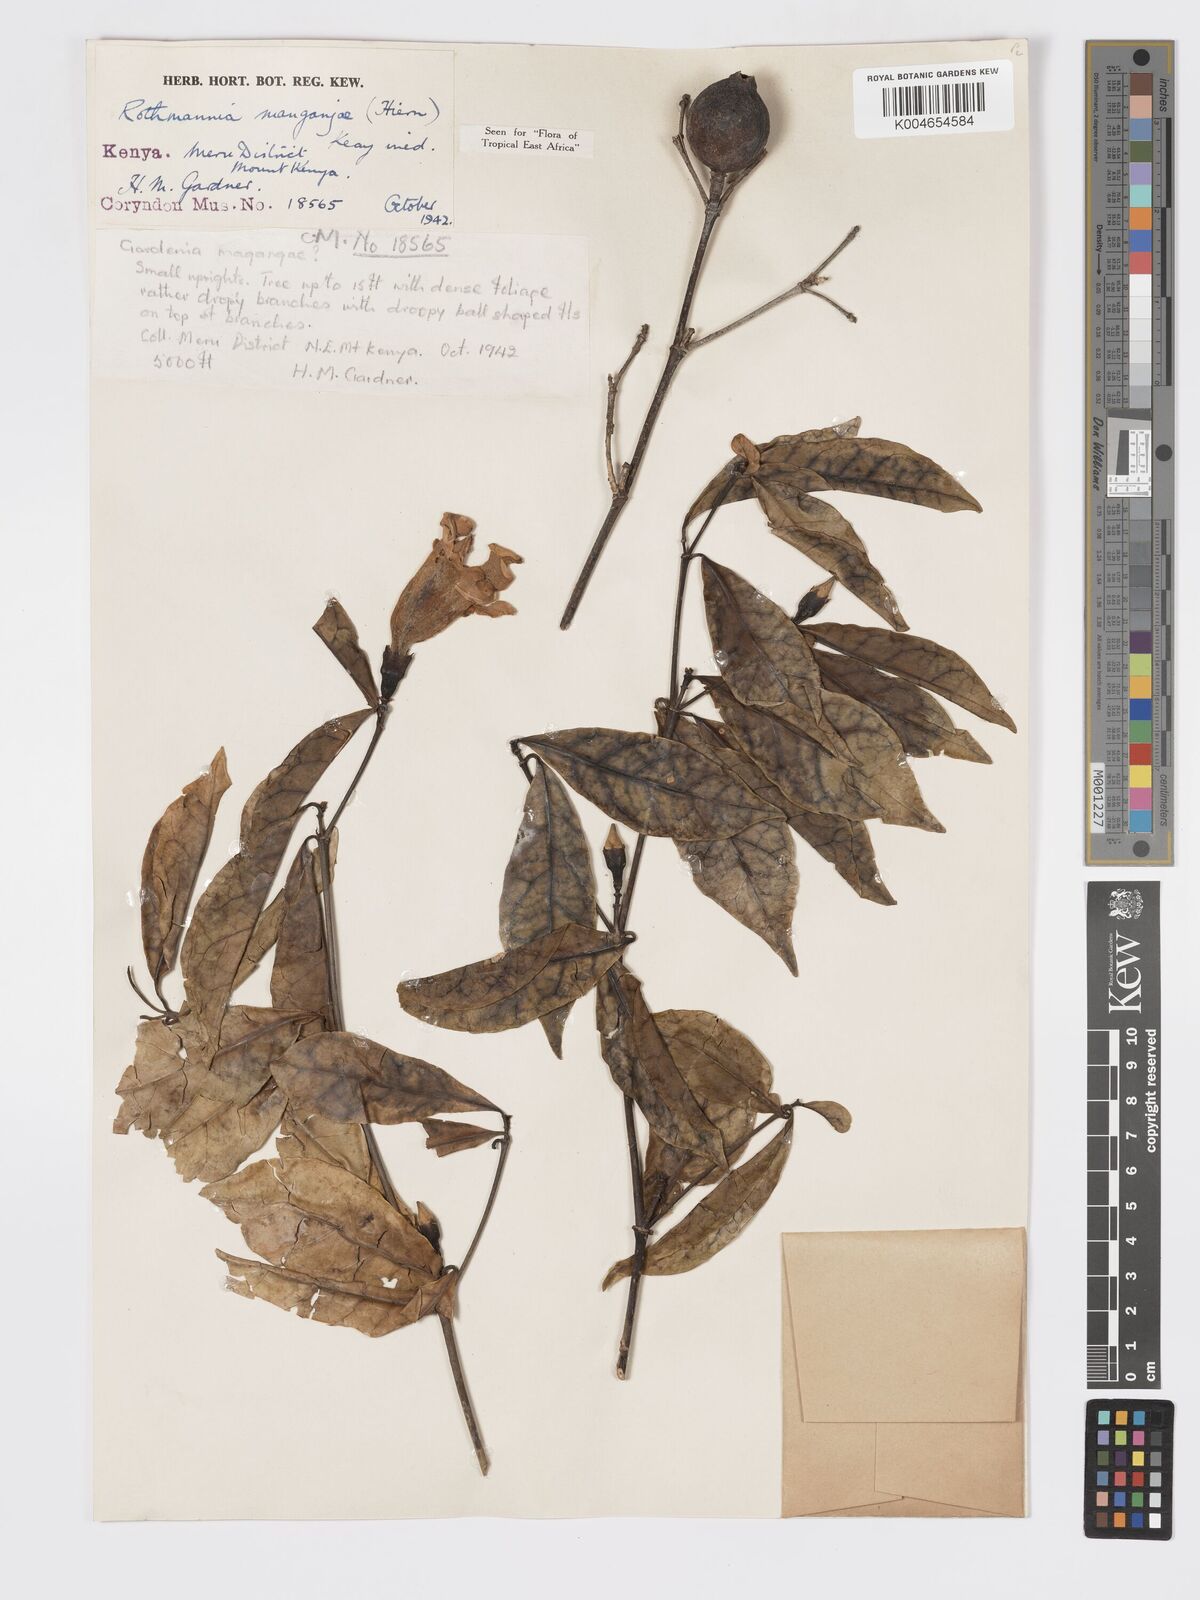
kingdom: Plantae
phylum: Tracheophyta
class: Magnoliopsida
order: Gentianales
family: Rubiaceae
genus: Rothmannia
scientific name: Rothmannia manganjae
